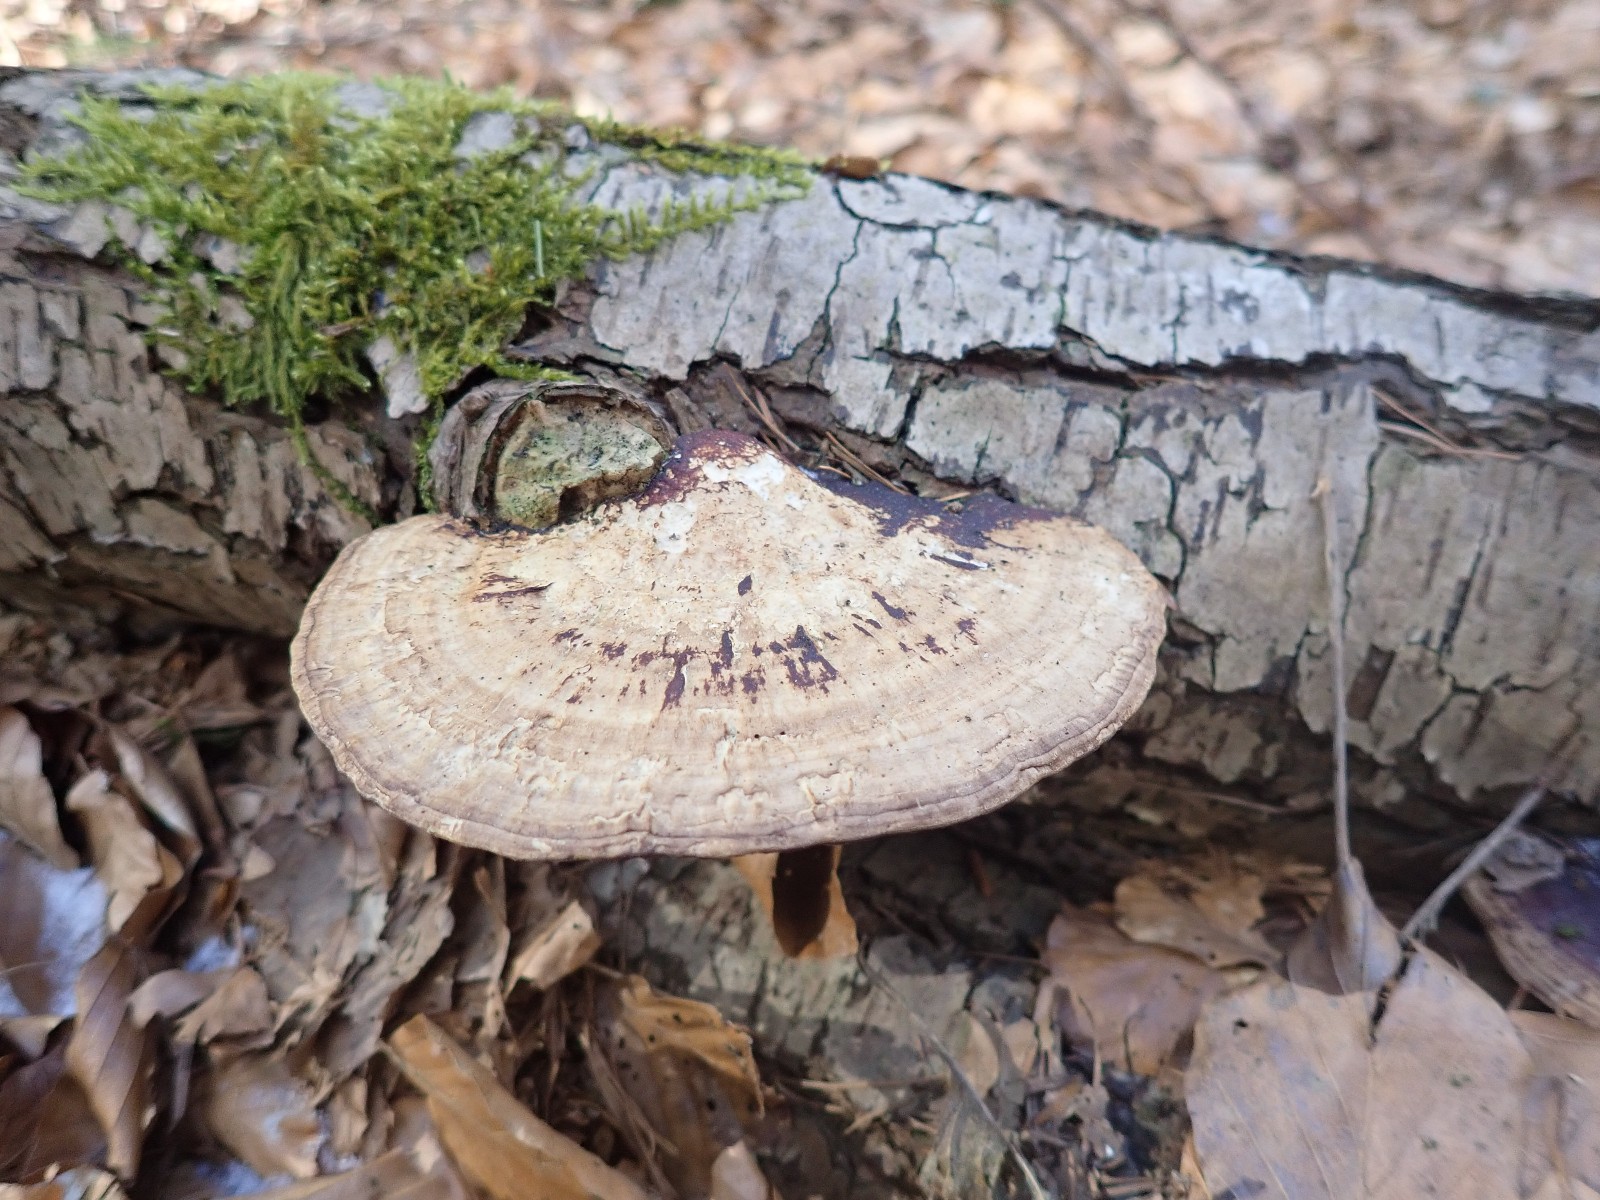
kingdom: Fungi
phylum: Basidiomycota
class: Agaricomycetes
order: Polyporales
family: Polyporaceae
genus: Daedaleopsis
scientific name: Daedaleopsis confragosa
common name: rødmende læderporesvamp
